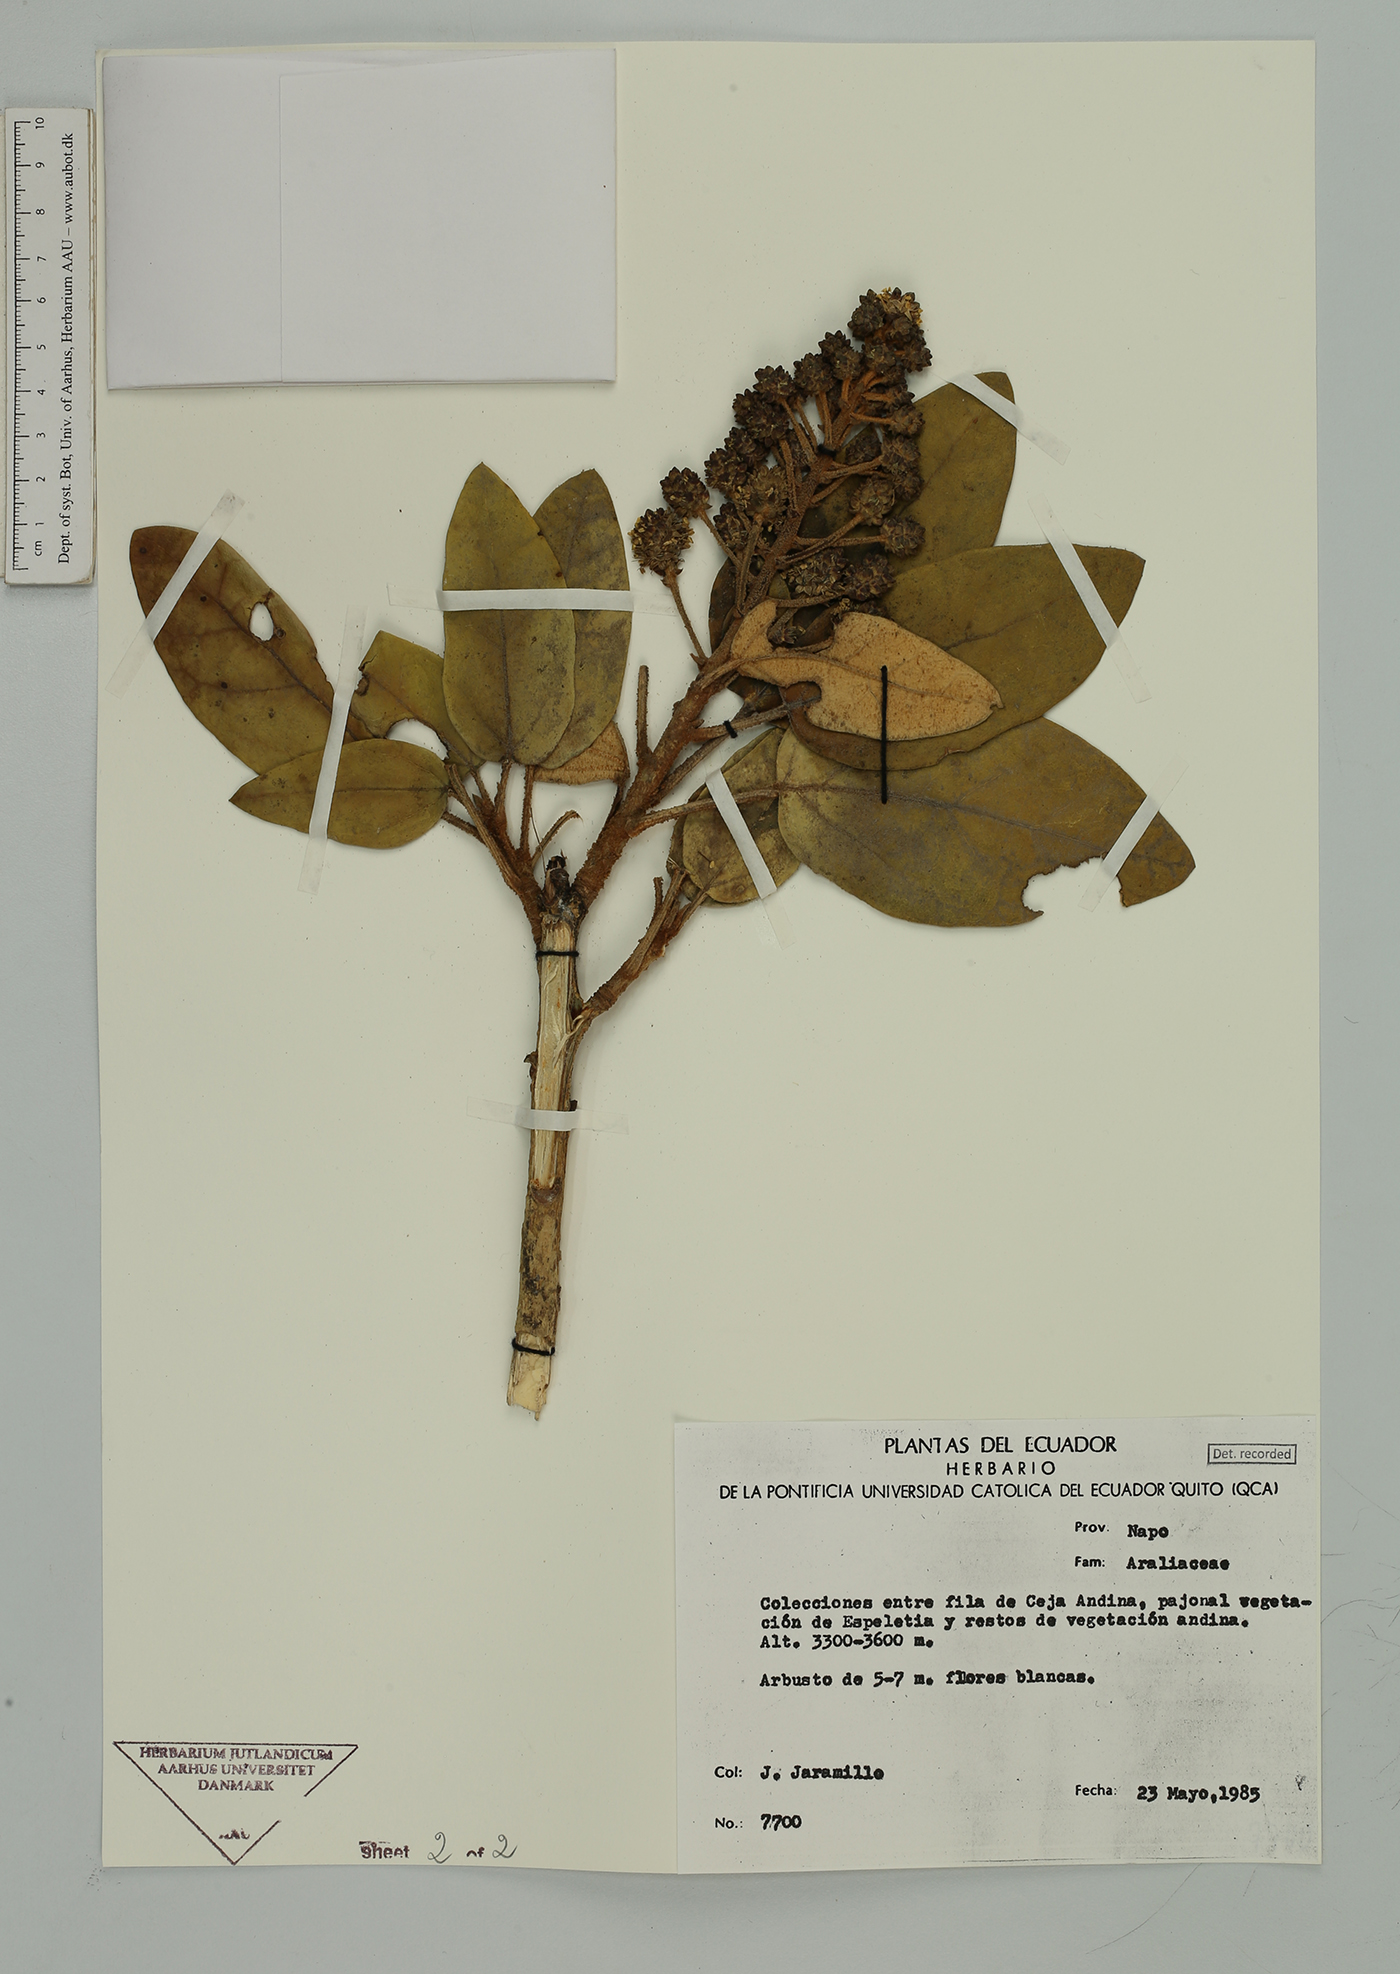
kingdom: Plantae
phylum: Tracheophyta
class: Magnoliopsida
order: Apiales
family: Araliaceae
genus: Oreopanax
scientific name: Oreopanax
